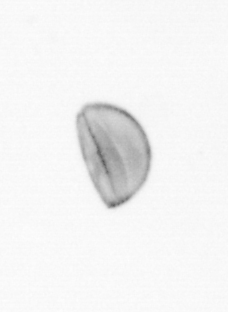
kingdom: Chromista
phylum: Ochrophyta
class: Bacillariophyceae
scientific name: Bacillariophyceae
